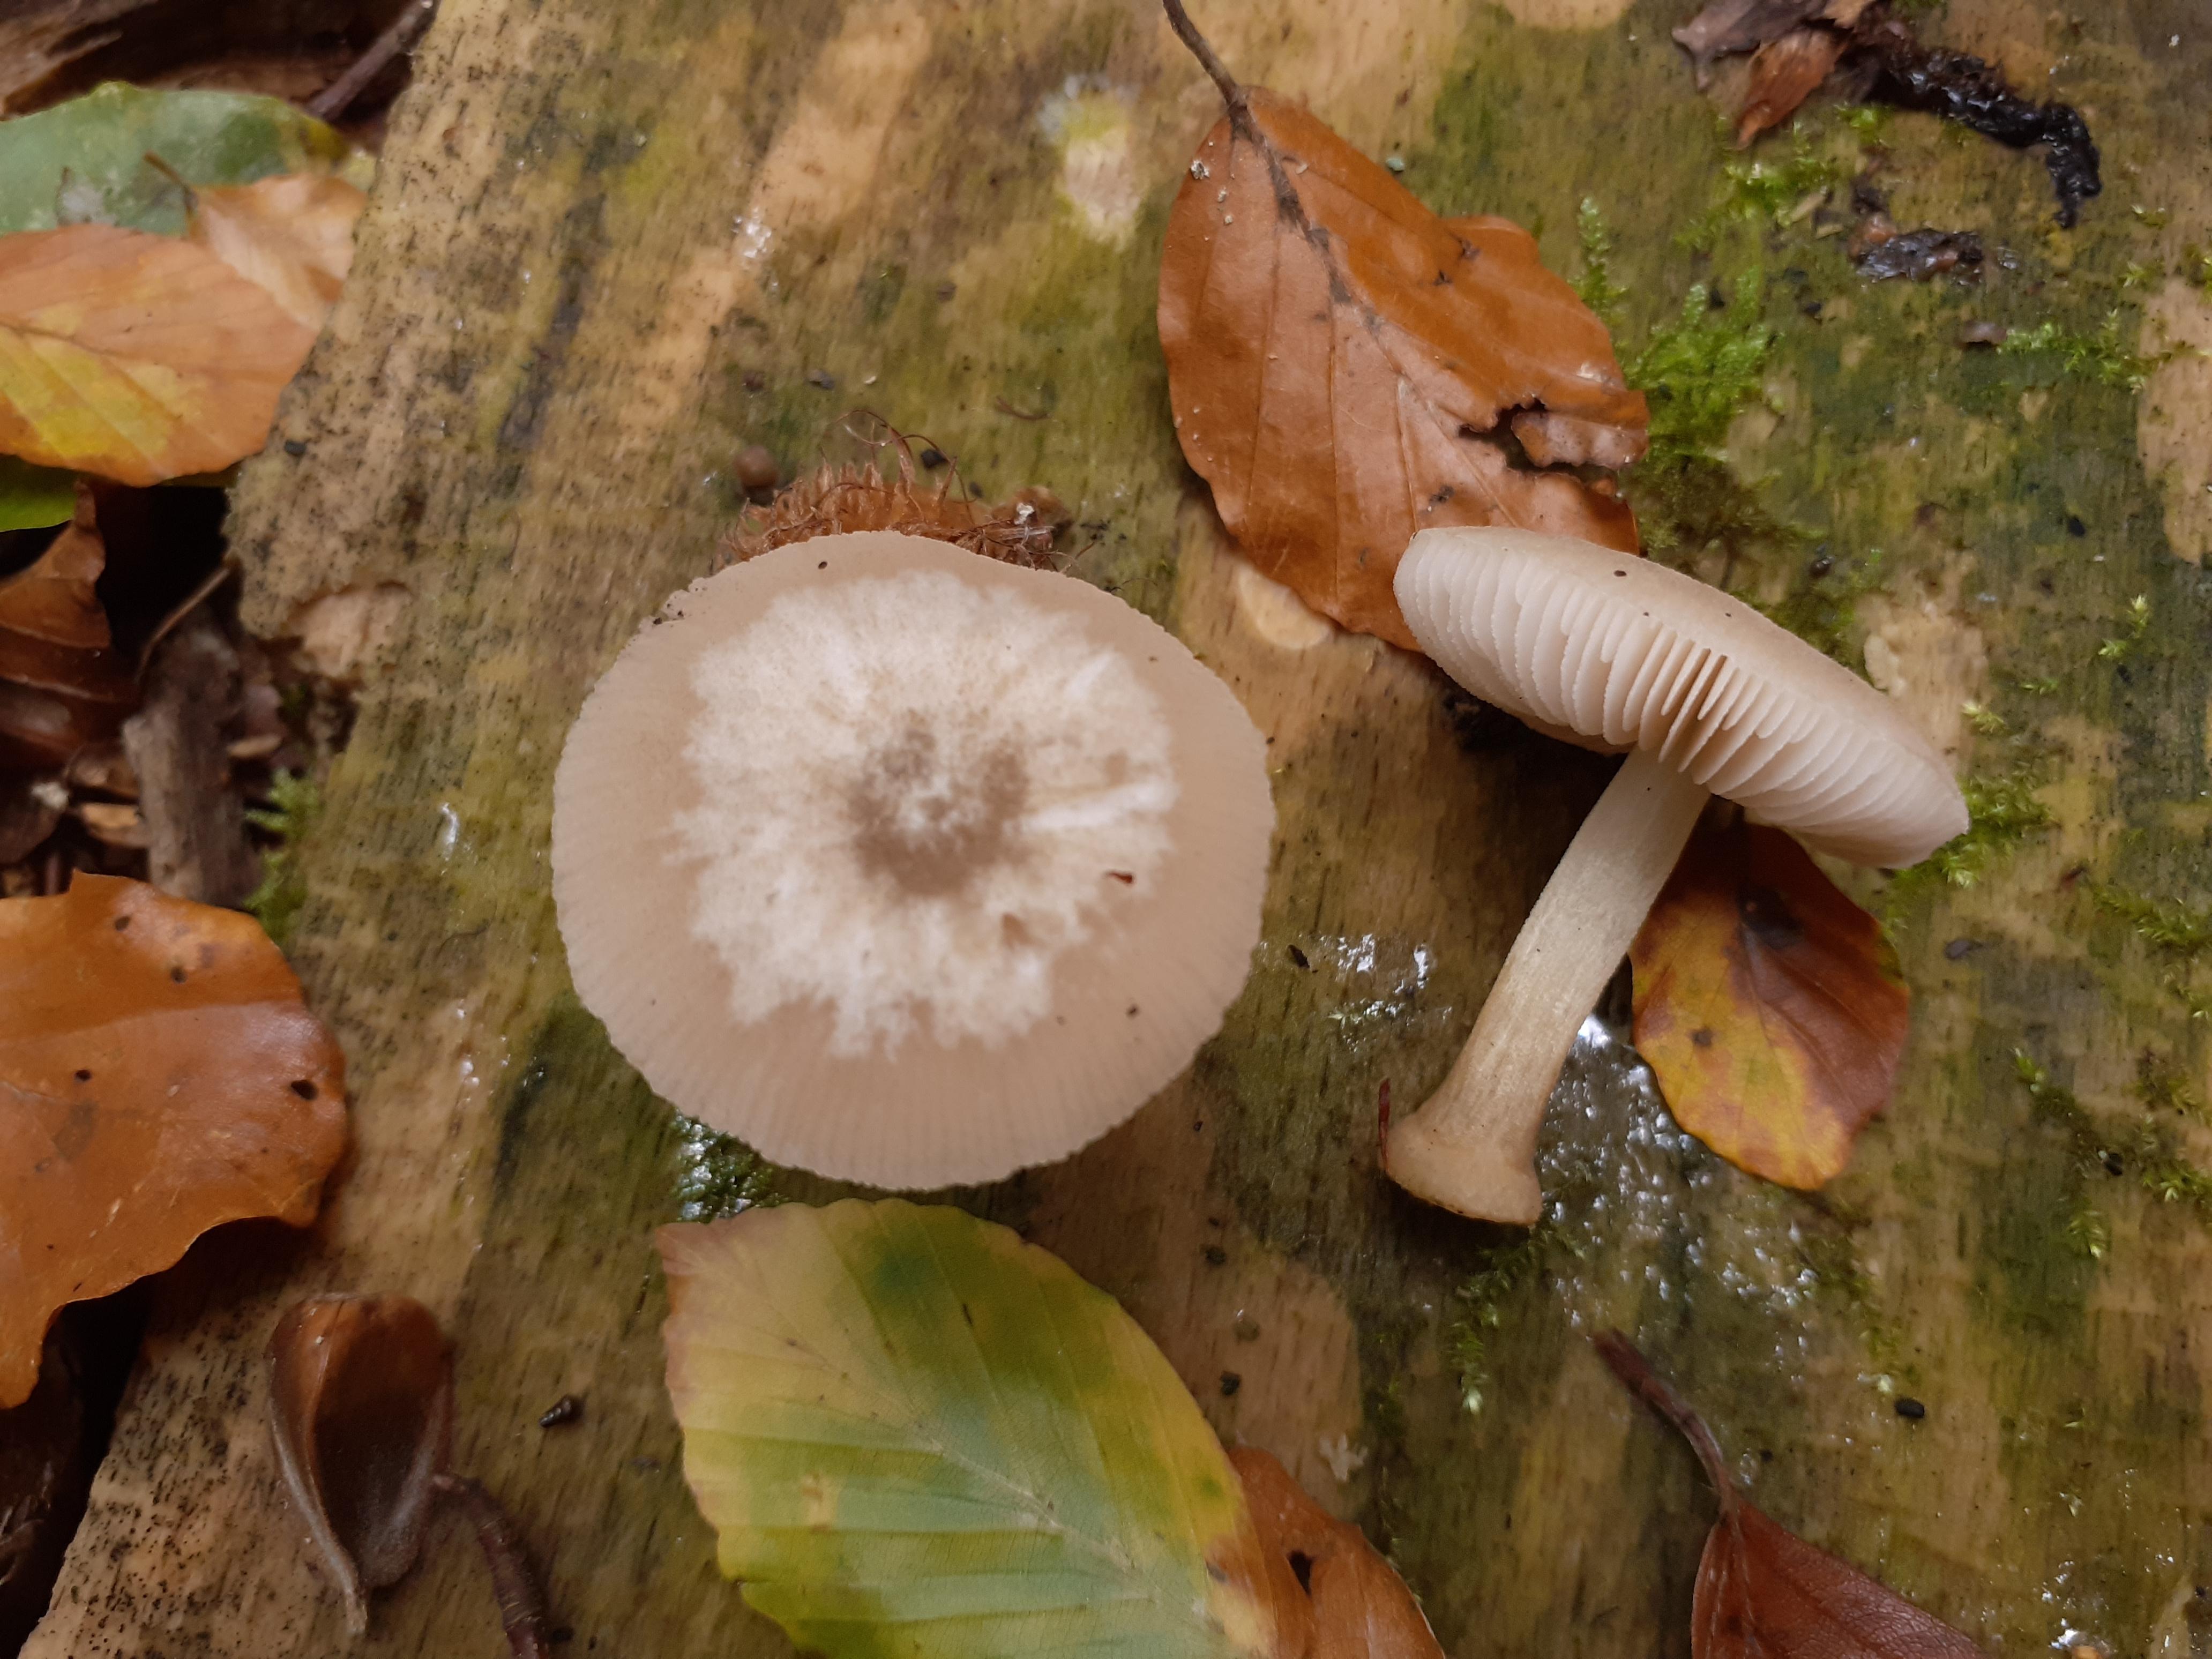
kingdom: Fungi
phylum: Basidiomycota
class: Agaricomycetes
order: Agaricales
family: Pluteaceae
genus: Pluteus
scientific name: Pluteus
